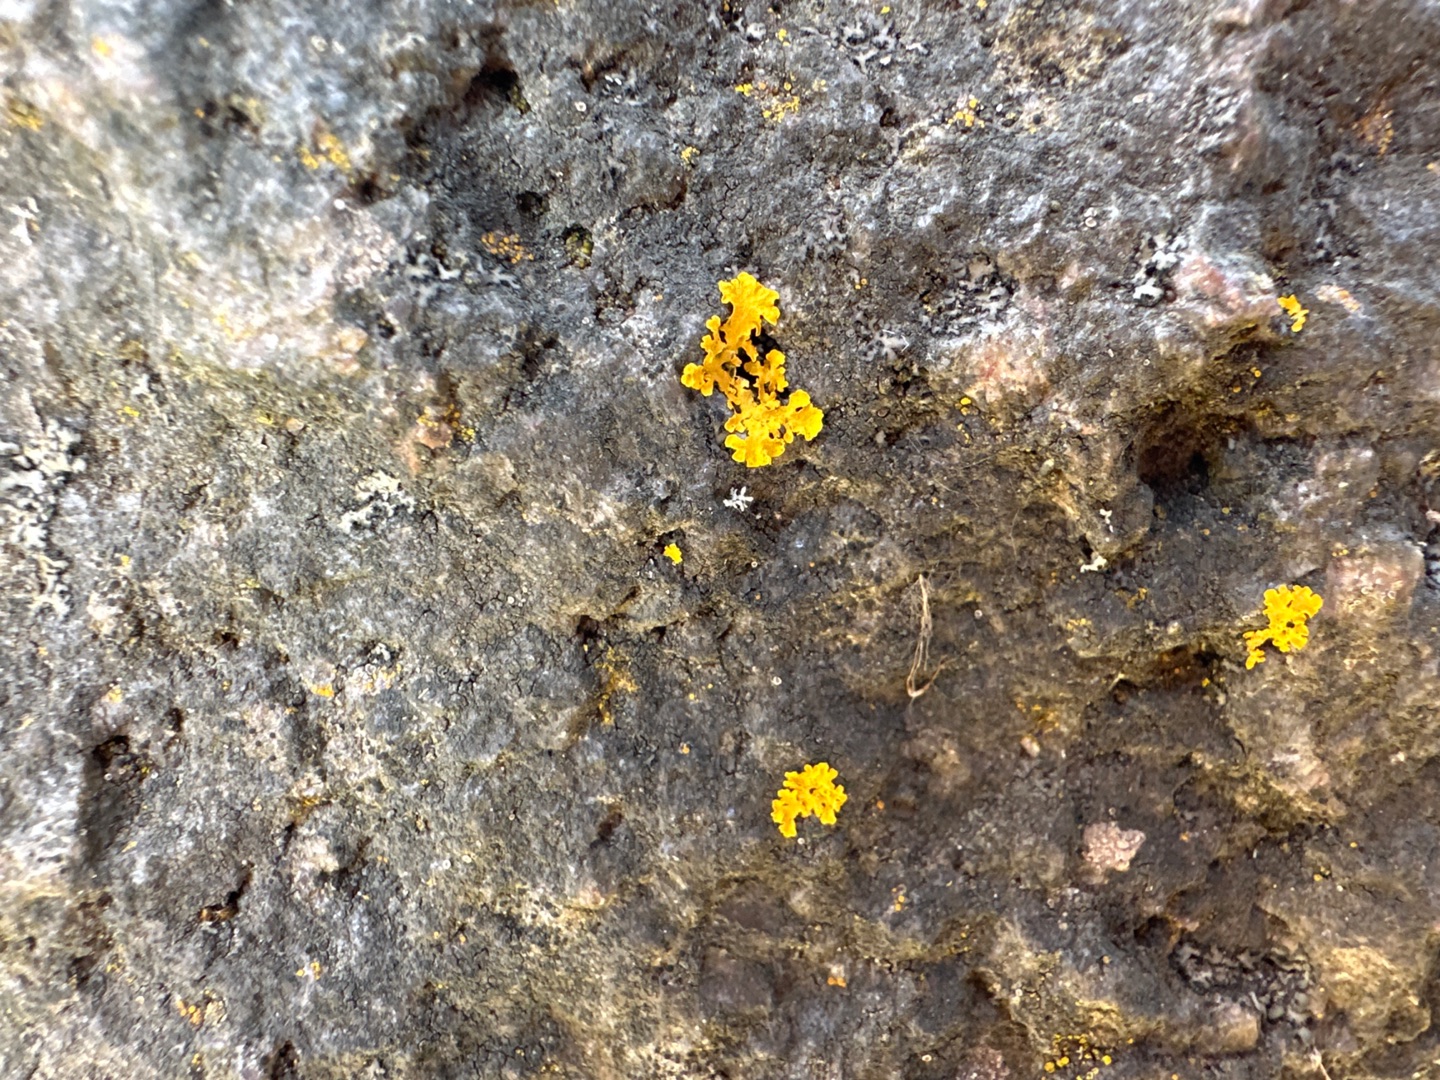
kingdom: Fungi
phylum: Ascomycota
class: Lecanoromycetes
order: Teloschistales
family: Teloschistaceae
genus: Xanthoria
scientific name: Xanthoria parietina
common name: Almindelig væggelav
